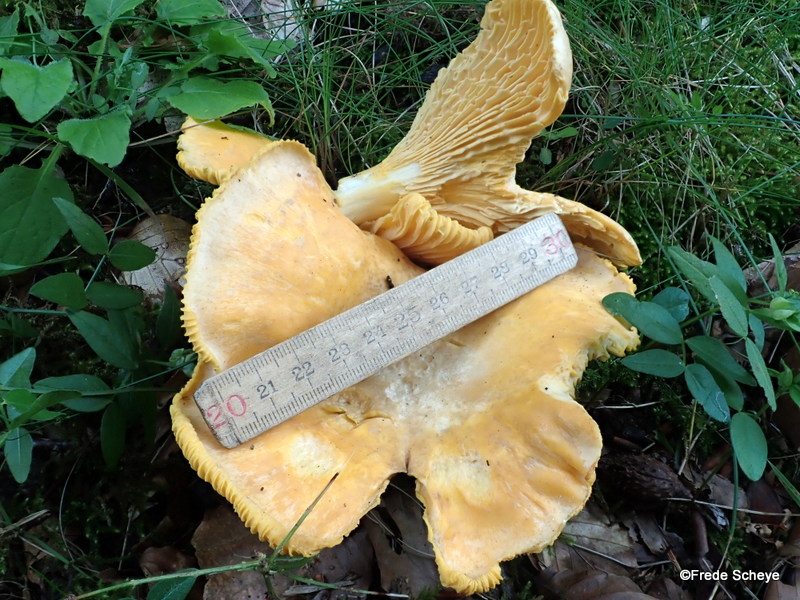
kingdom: Fungi
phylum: Basidiomycota
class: Agaricomycetes
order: Cantharellales
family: Hydnaceae
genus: Cantharellus
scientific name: Cantharellus pallens
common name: bleg kantarel
